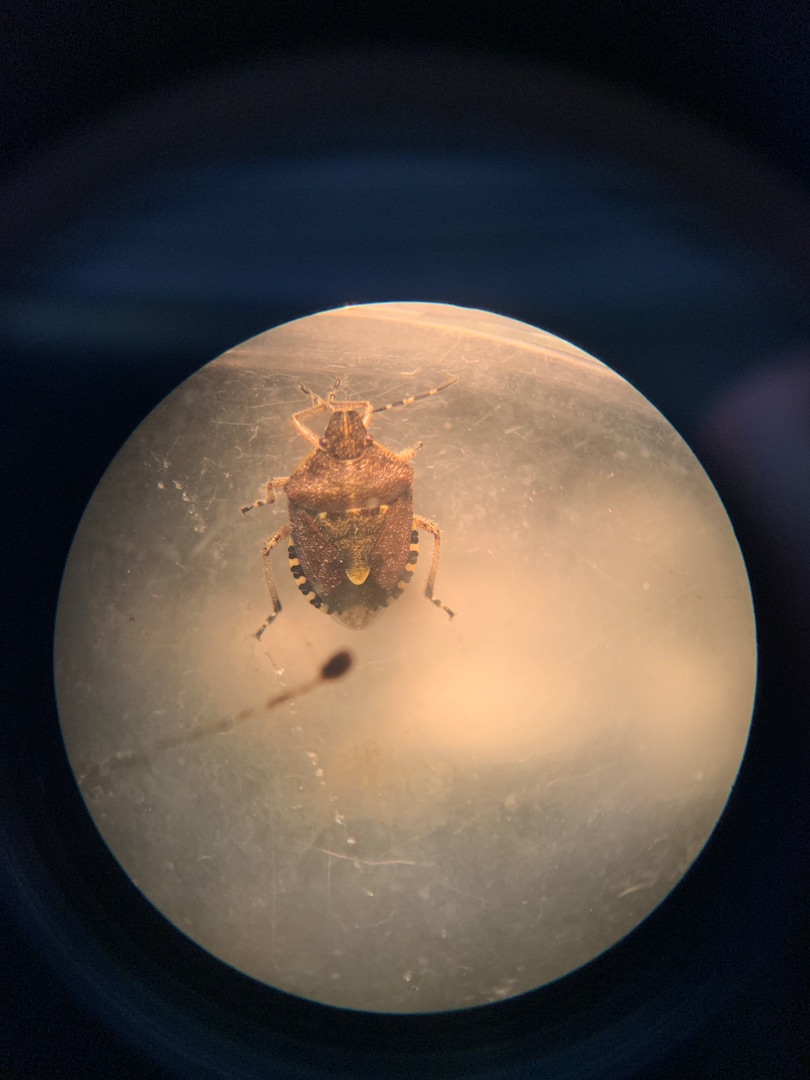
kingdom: Animalia
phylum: Arthropoda
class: Insecta
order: Hemiptera
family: Pentatomidae
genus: Dolycoris
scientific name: Dolycoris baccarum
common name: Almindelig bærtæge
